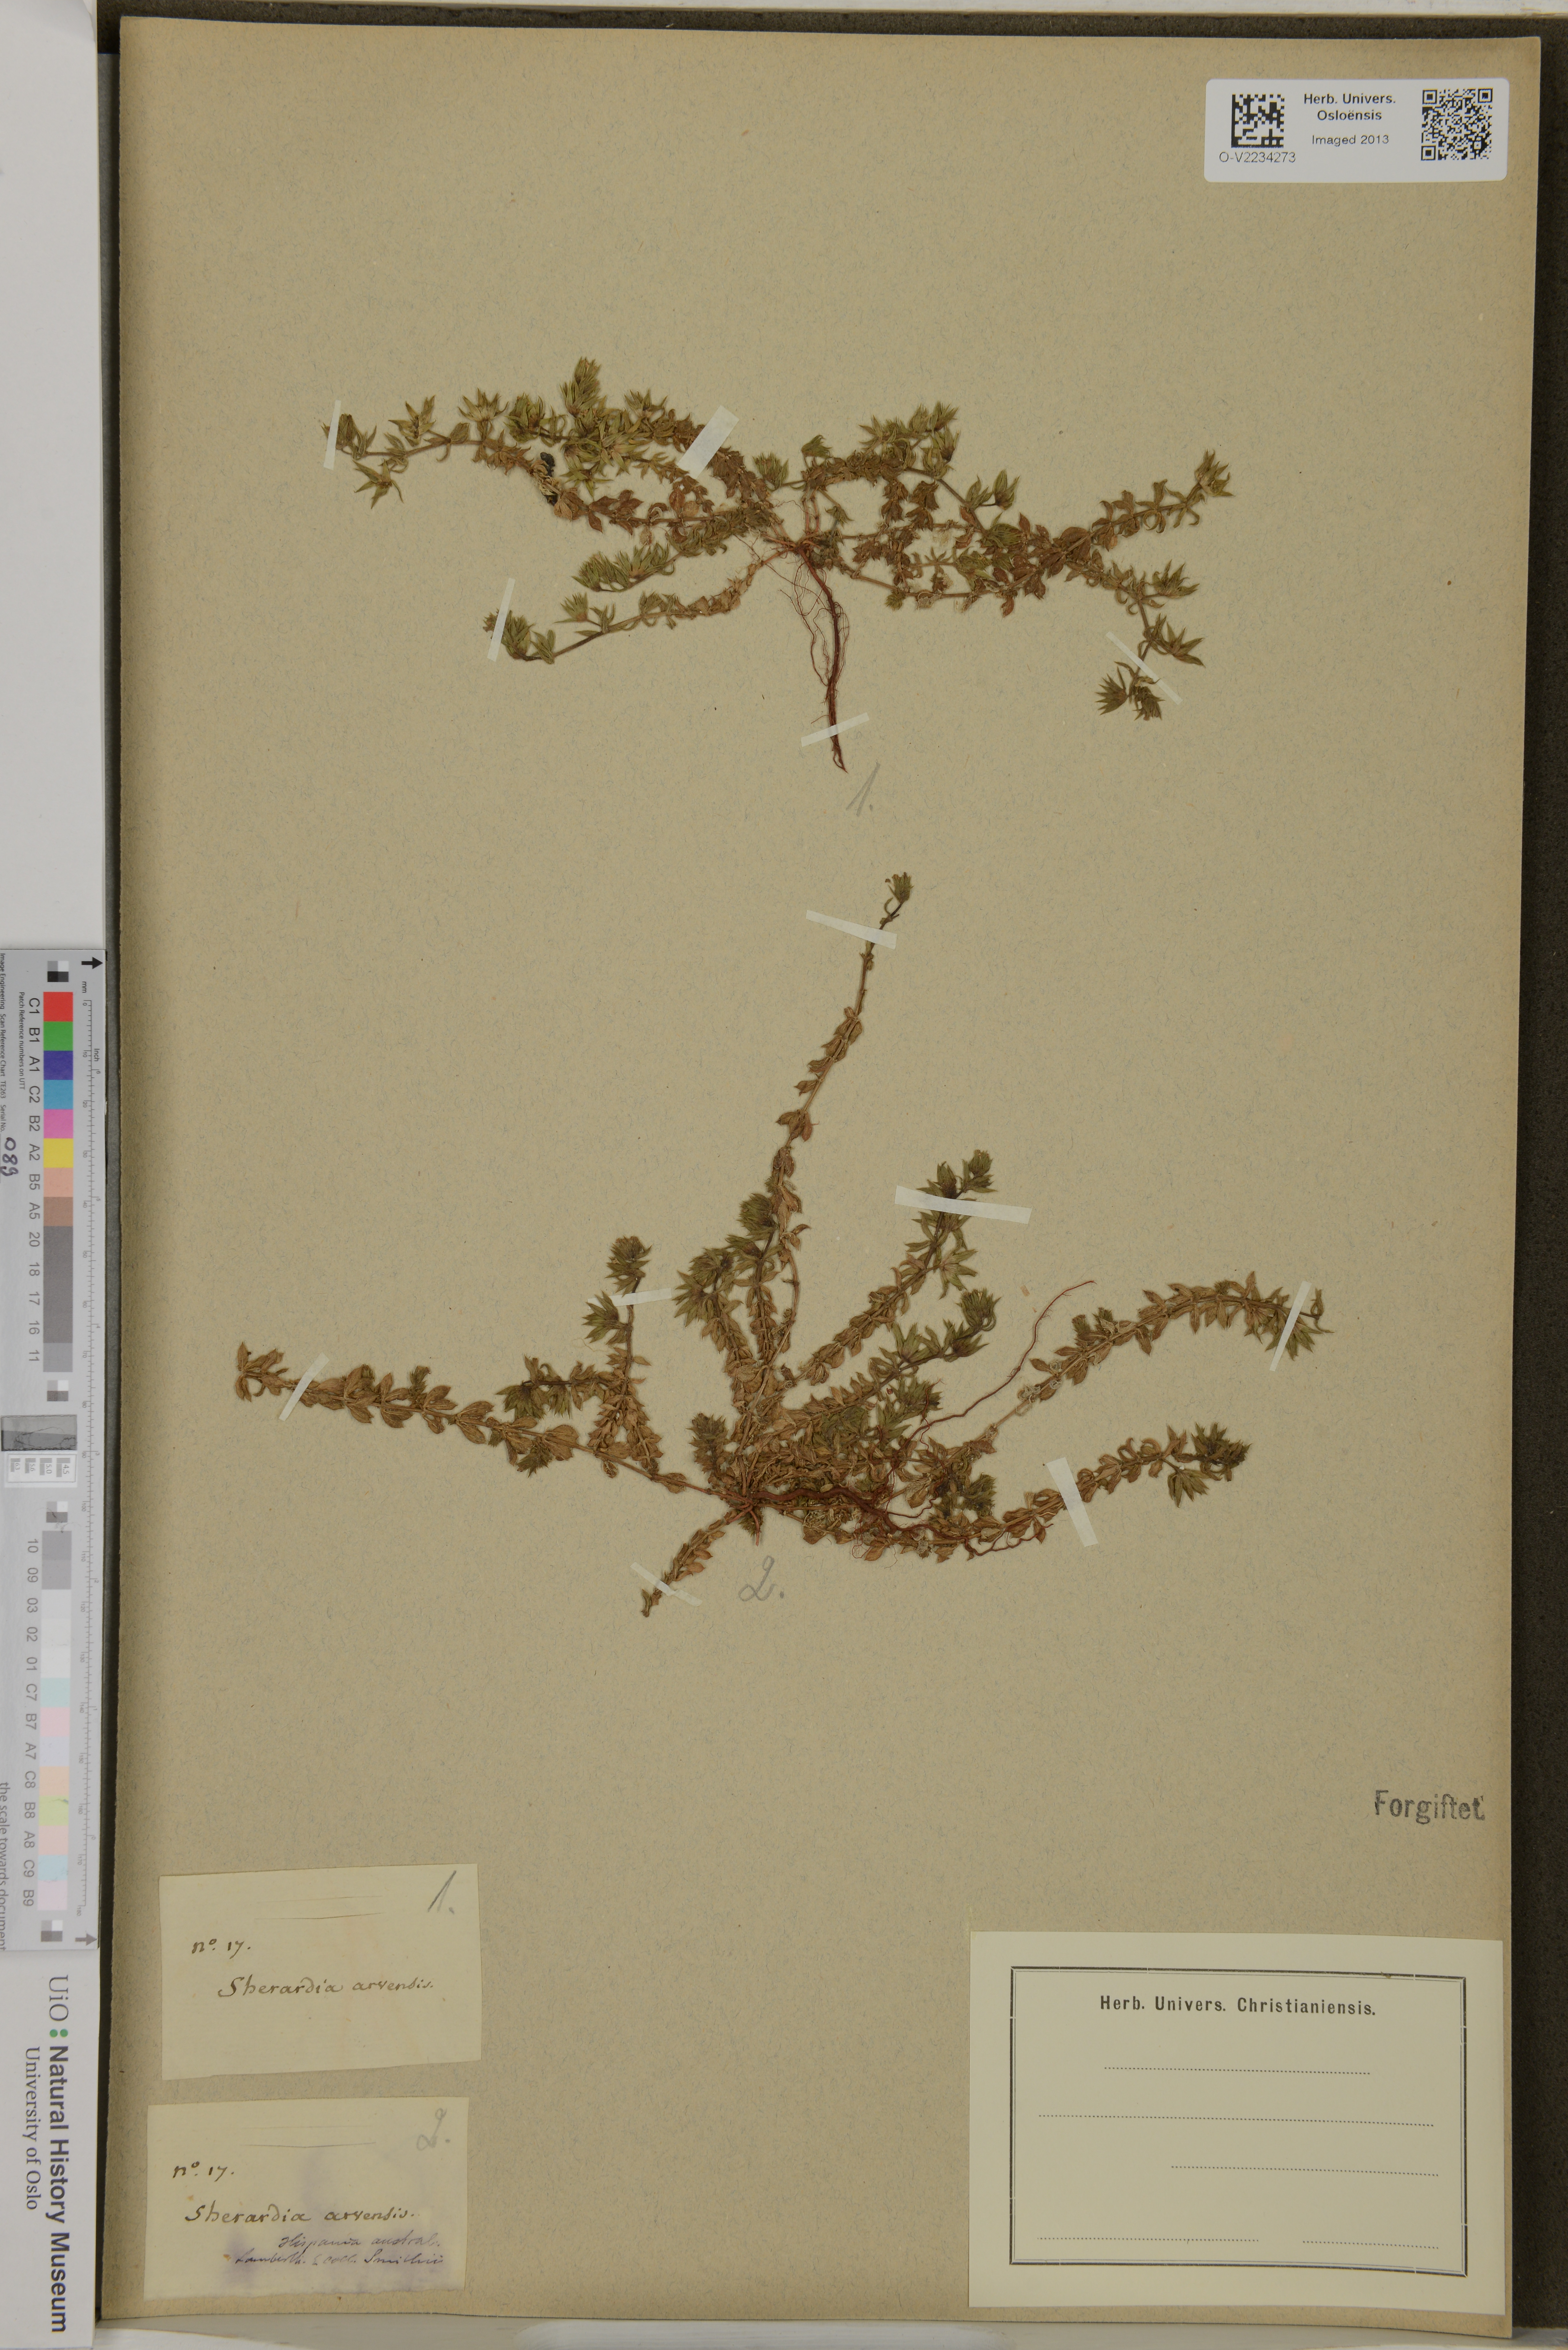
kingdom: Plantae
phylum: Tracheophyta
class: Magnoliopsida
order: Gentianales
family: Rubiaceae
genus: Sherardia
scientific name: Sherardia arvensis
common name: Field madder
